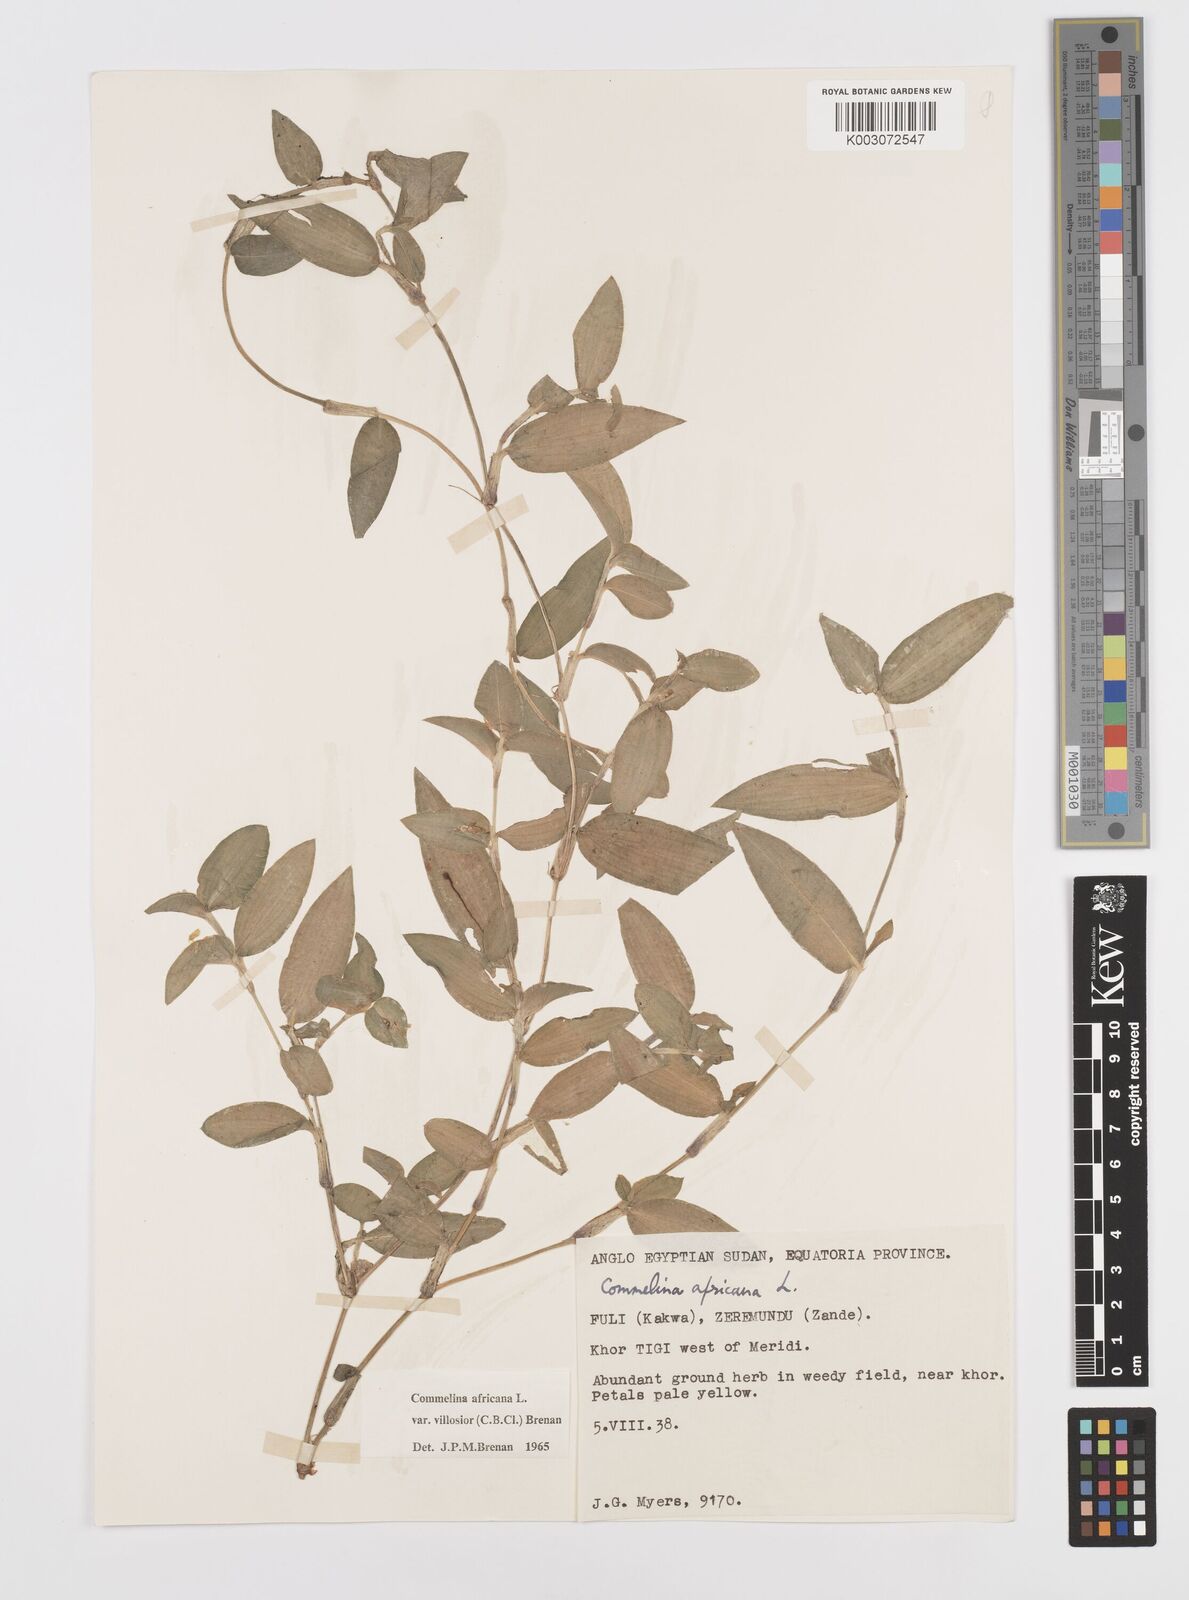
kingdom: Plantae
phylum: Tracheophyta
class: Liliopsida
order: Commelinales
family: Commelinaceae
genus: Commelina
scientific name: Commelina africana
